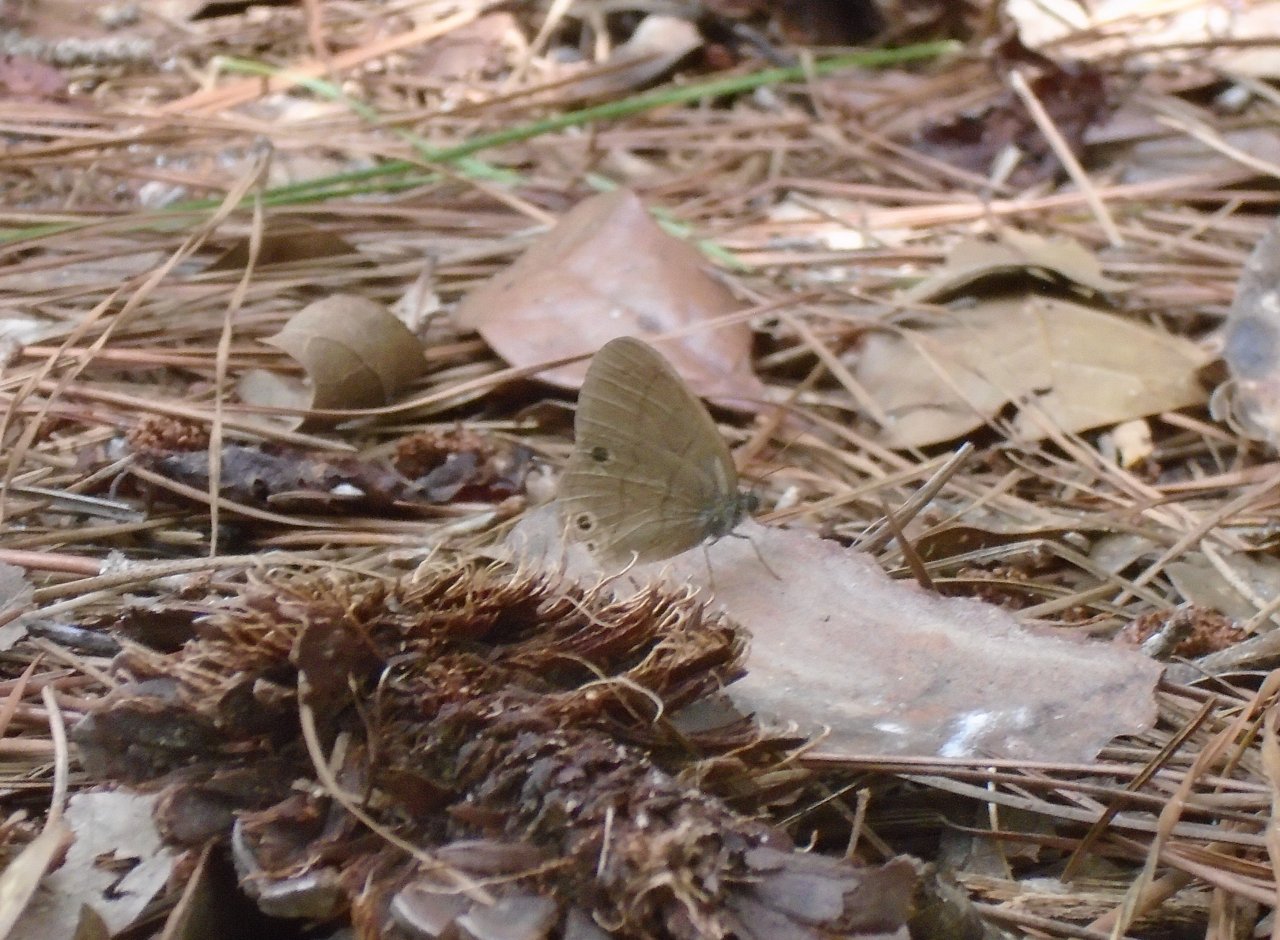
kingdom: Animalia
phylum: Arthropoda
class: Insecta
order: Lepidoptera
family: Nymphalidae
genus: Hermeuptychia
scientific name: Hermeuptychia
